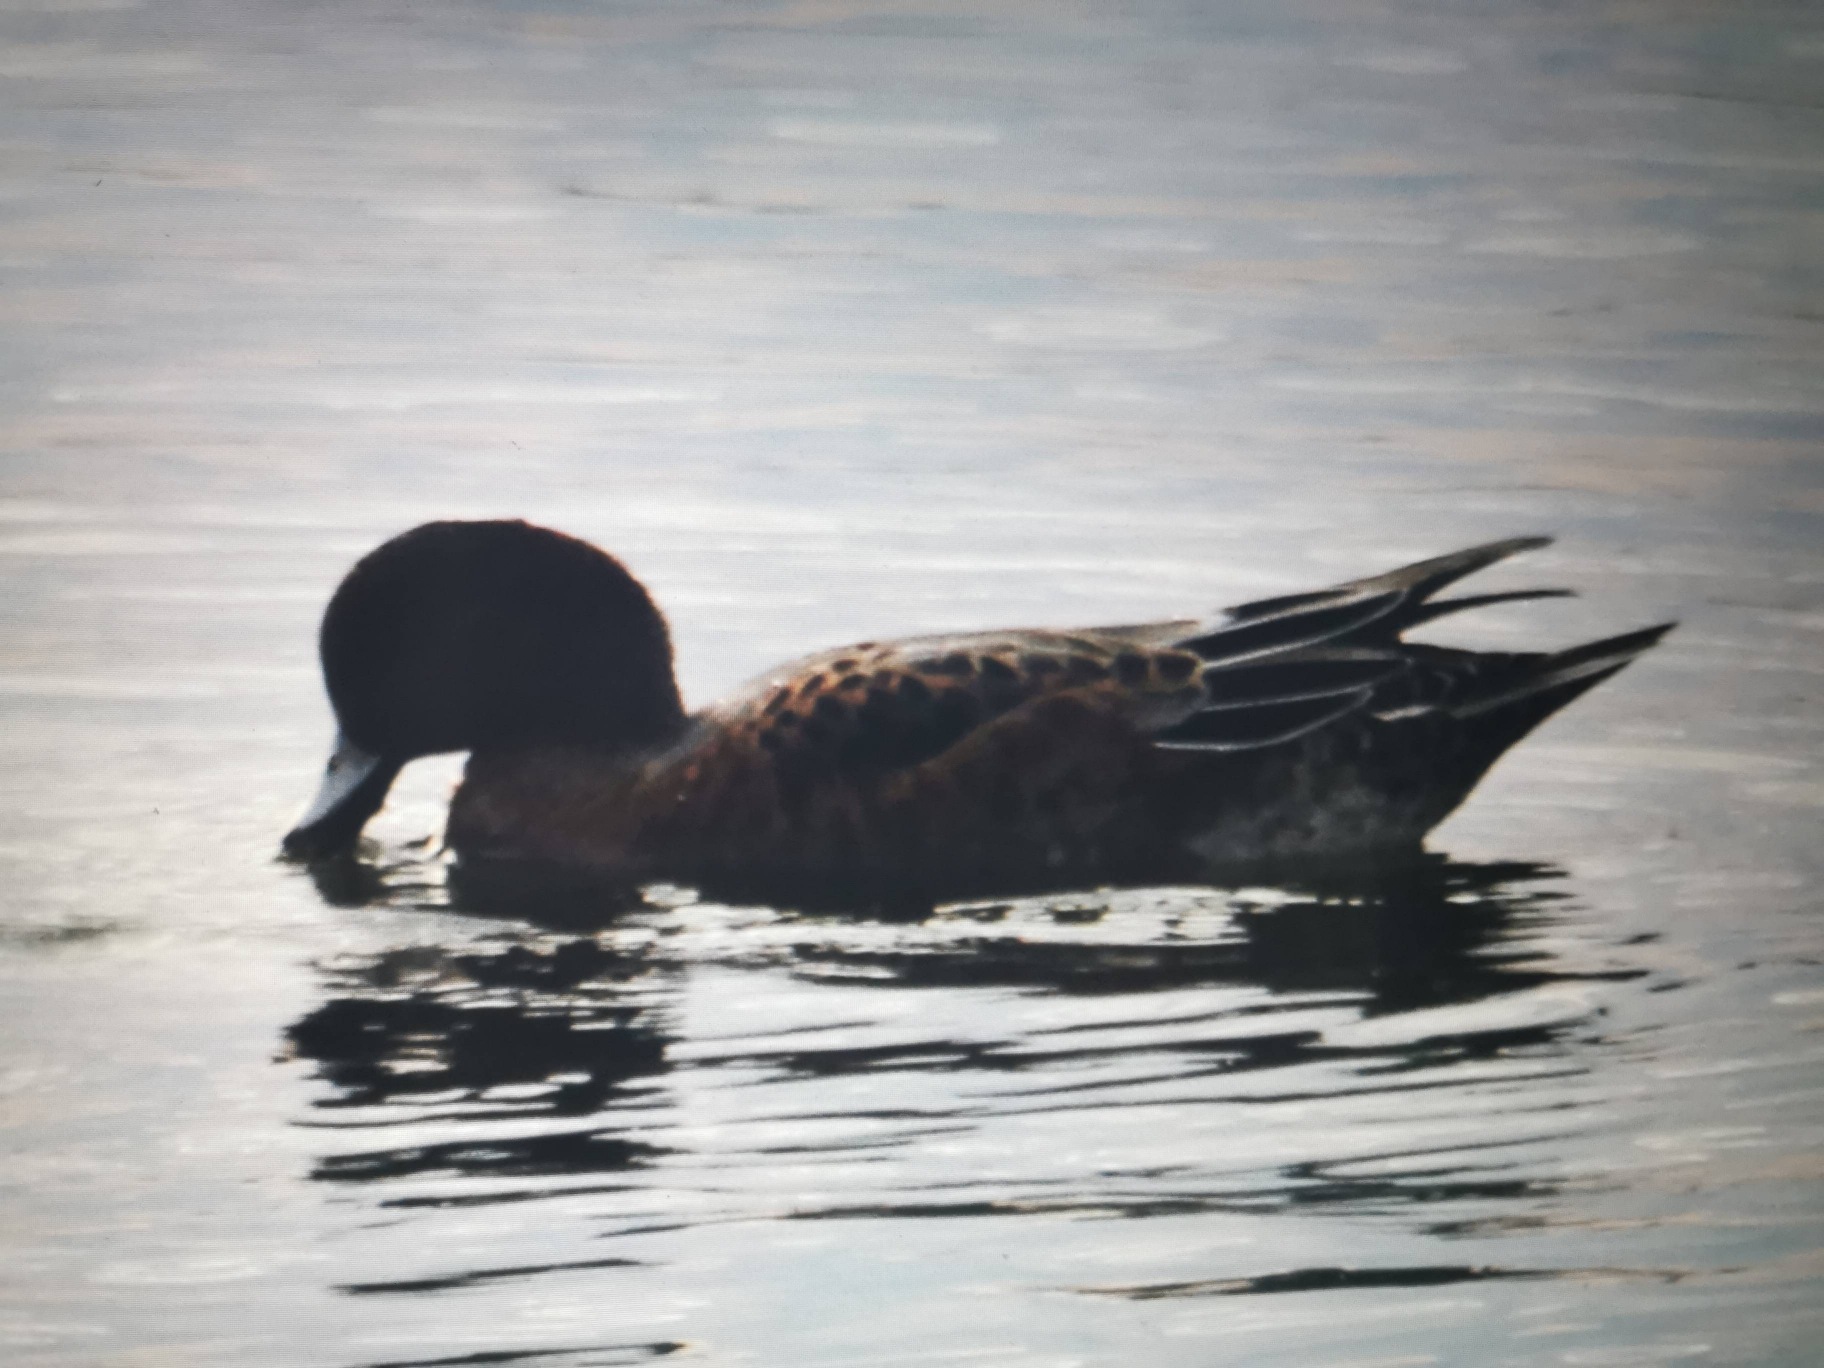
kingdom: Animalia
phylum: Chordata
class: Aves
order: Anseriformes
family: Anatidae
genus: Mareca
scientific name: Mareca penelope
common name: Pibeand
